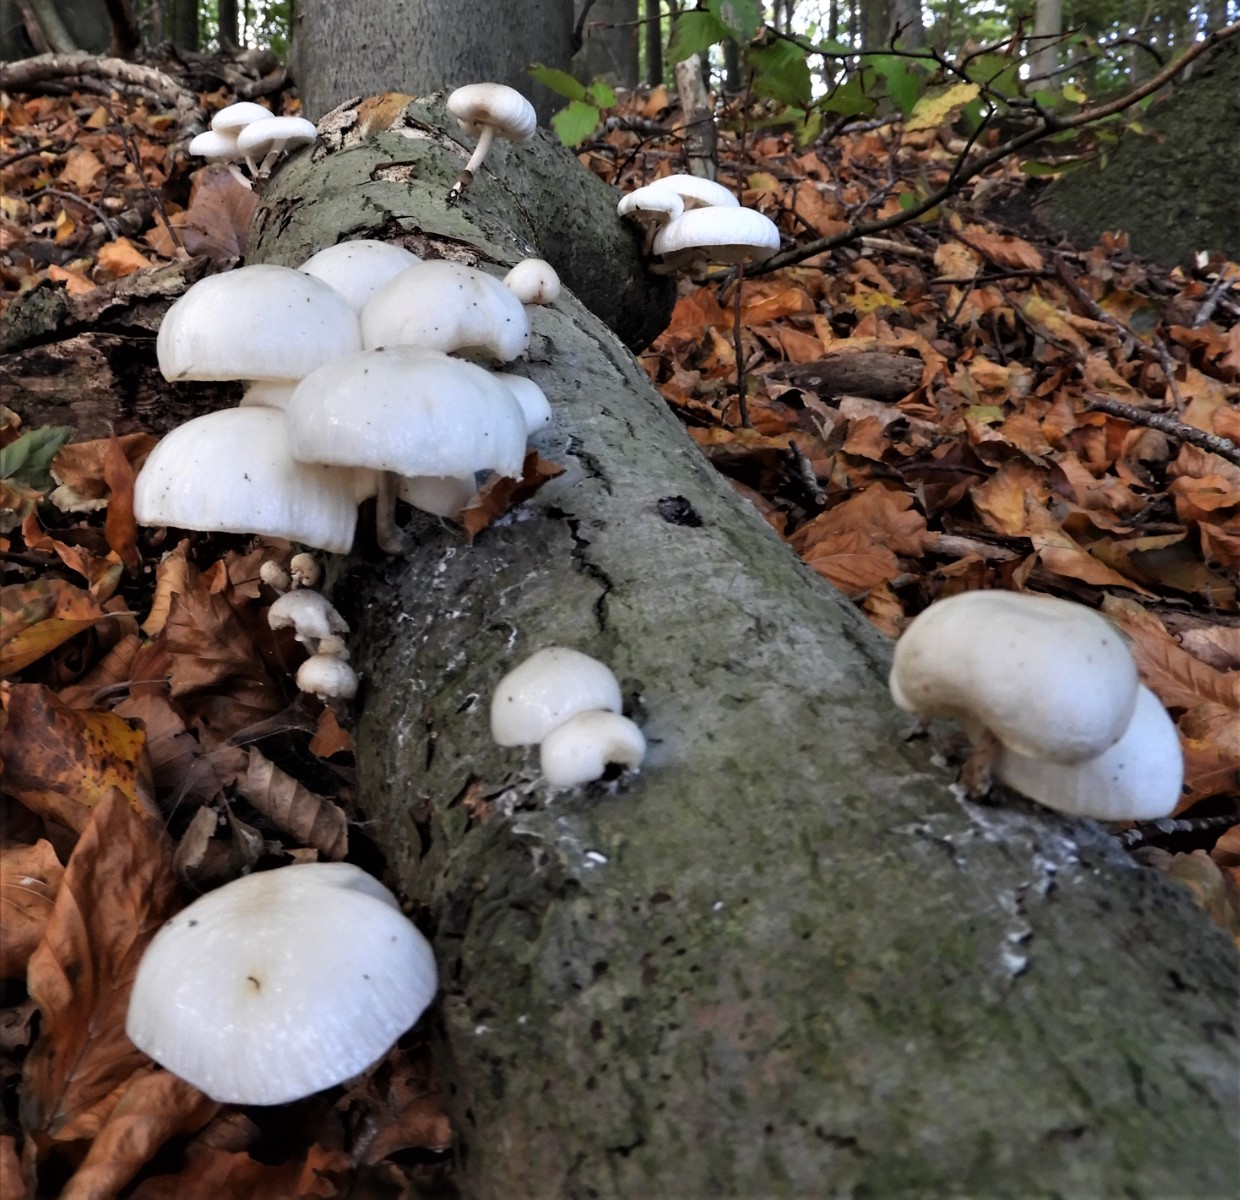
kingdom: Fungi
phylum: Basidiomycota
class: Agaricomycetes
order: Agaricales
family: Physalacriaceae
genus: Mucidula
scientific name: Mucidula mucida
